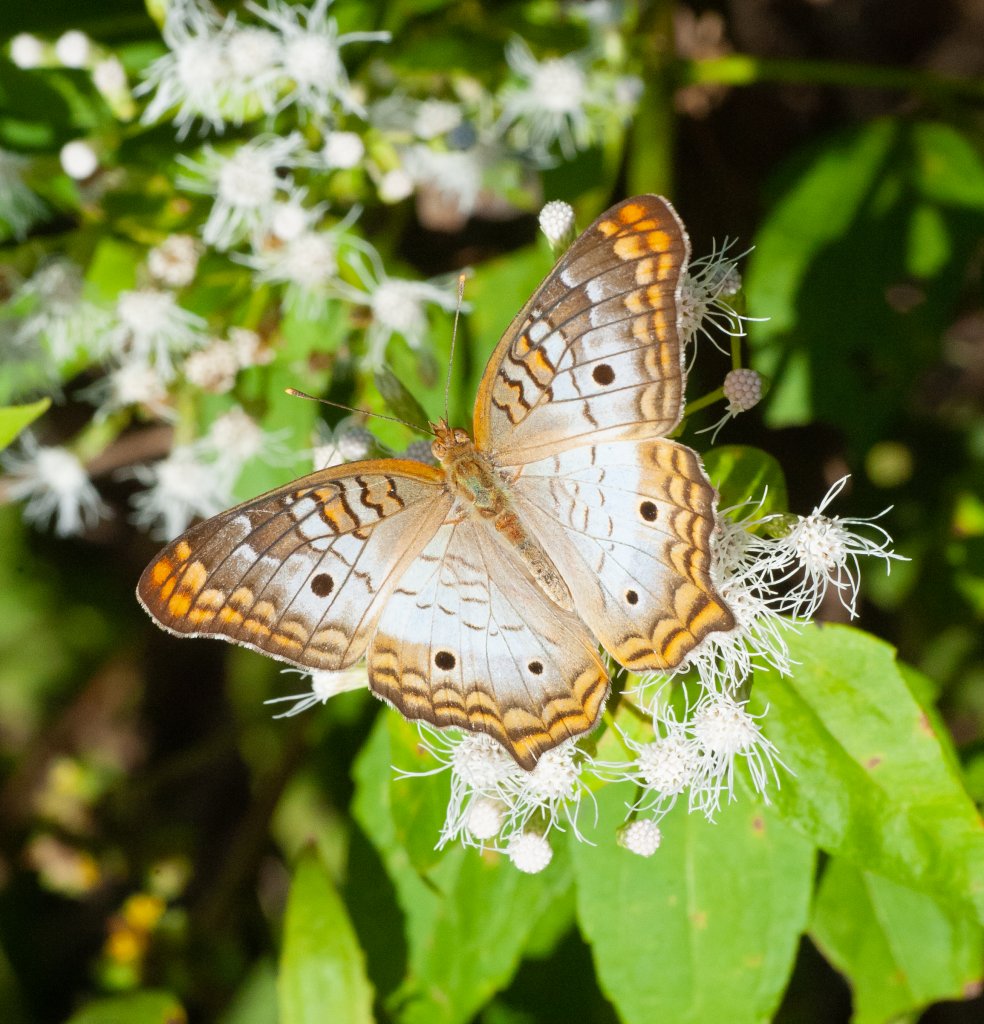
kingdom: Animalia
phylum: Arthropoda
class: Insecta
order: Lepidoptera
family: Nymphalidae
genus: Anartia
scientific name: Anartia jatrophae
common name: White Peacock
